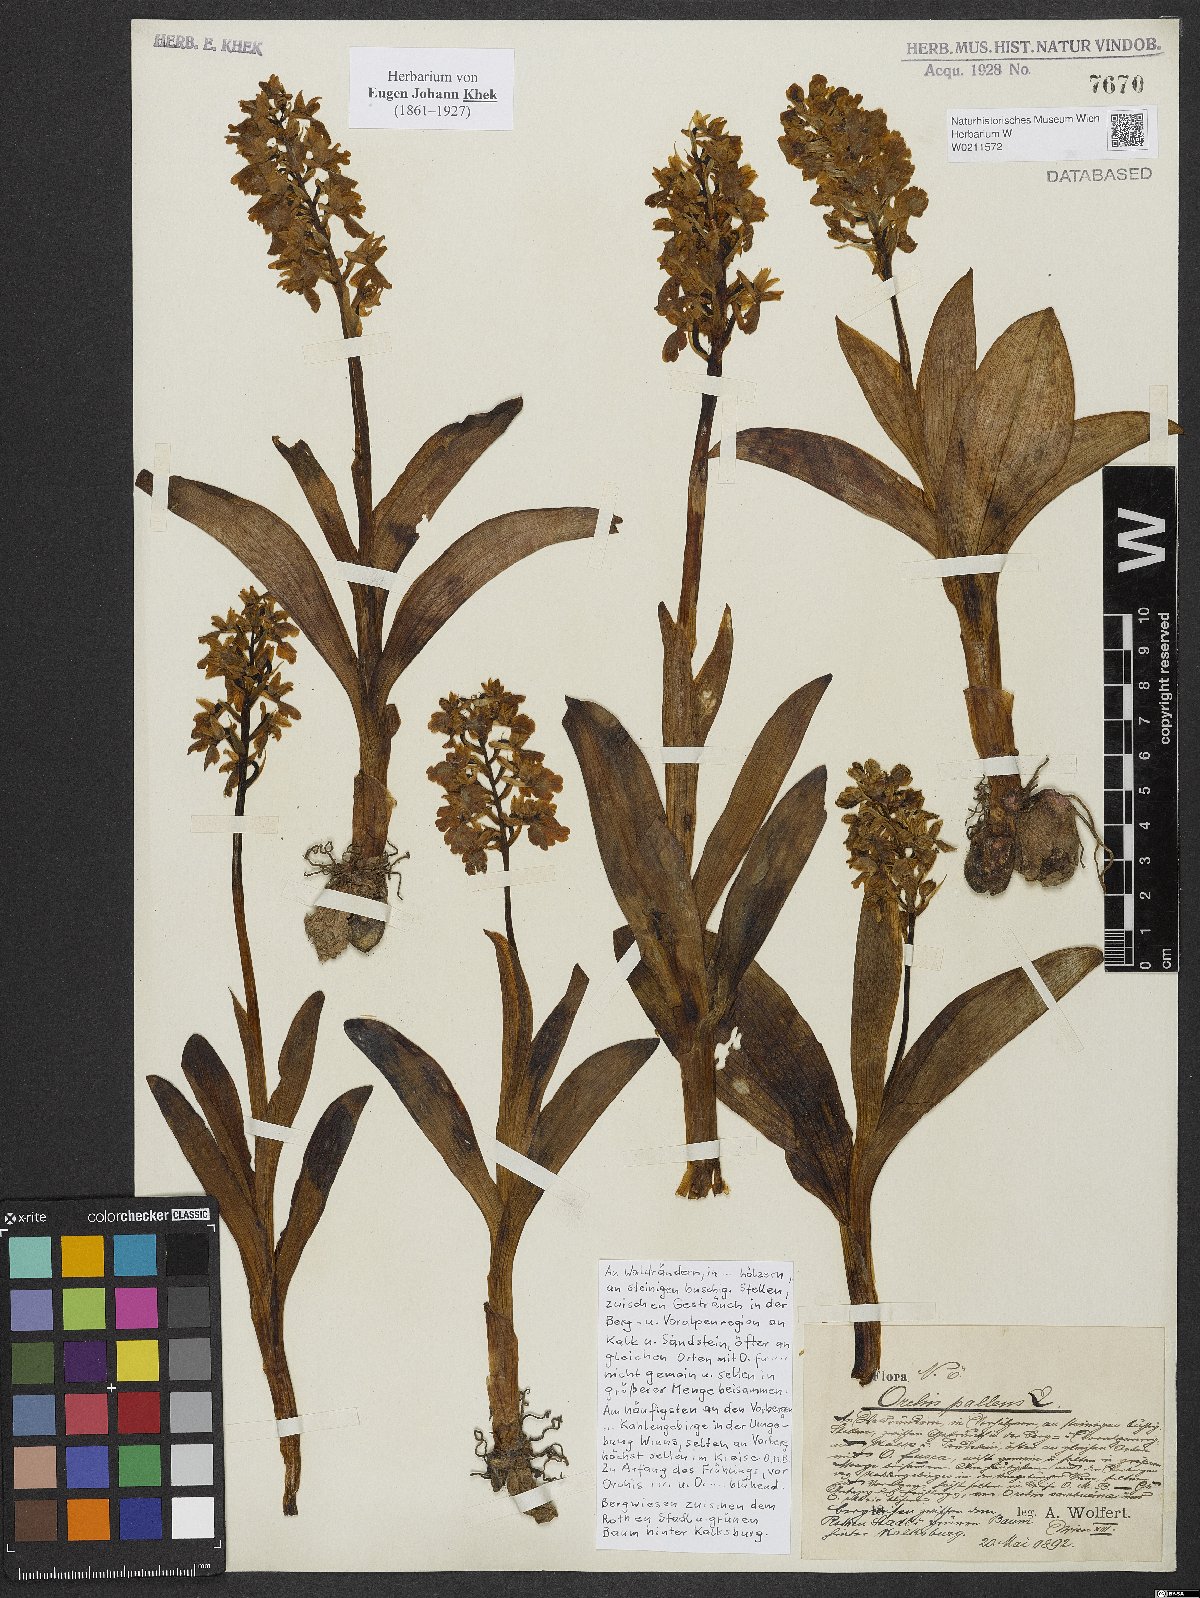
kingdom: Plantae
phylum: Tracheophyta
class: Liliopsida
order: Asparagales
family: Orchidaceae
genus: Orchis
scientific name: Orchis pallens
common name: Pale-flowered orchid
